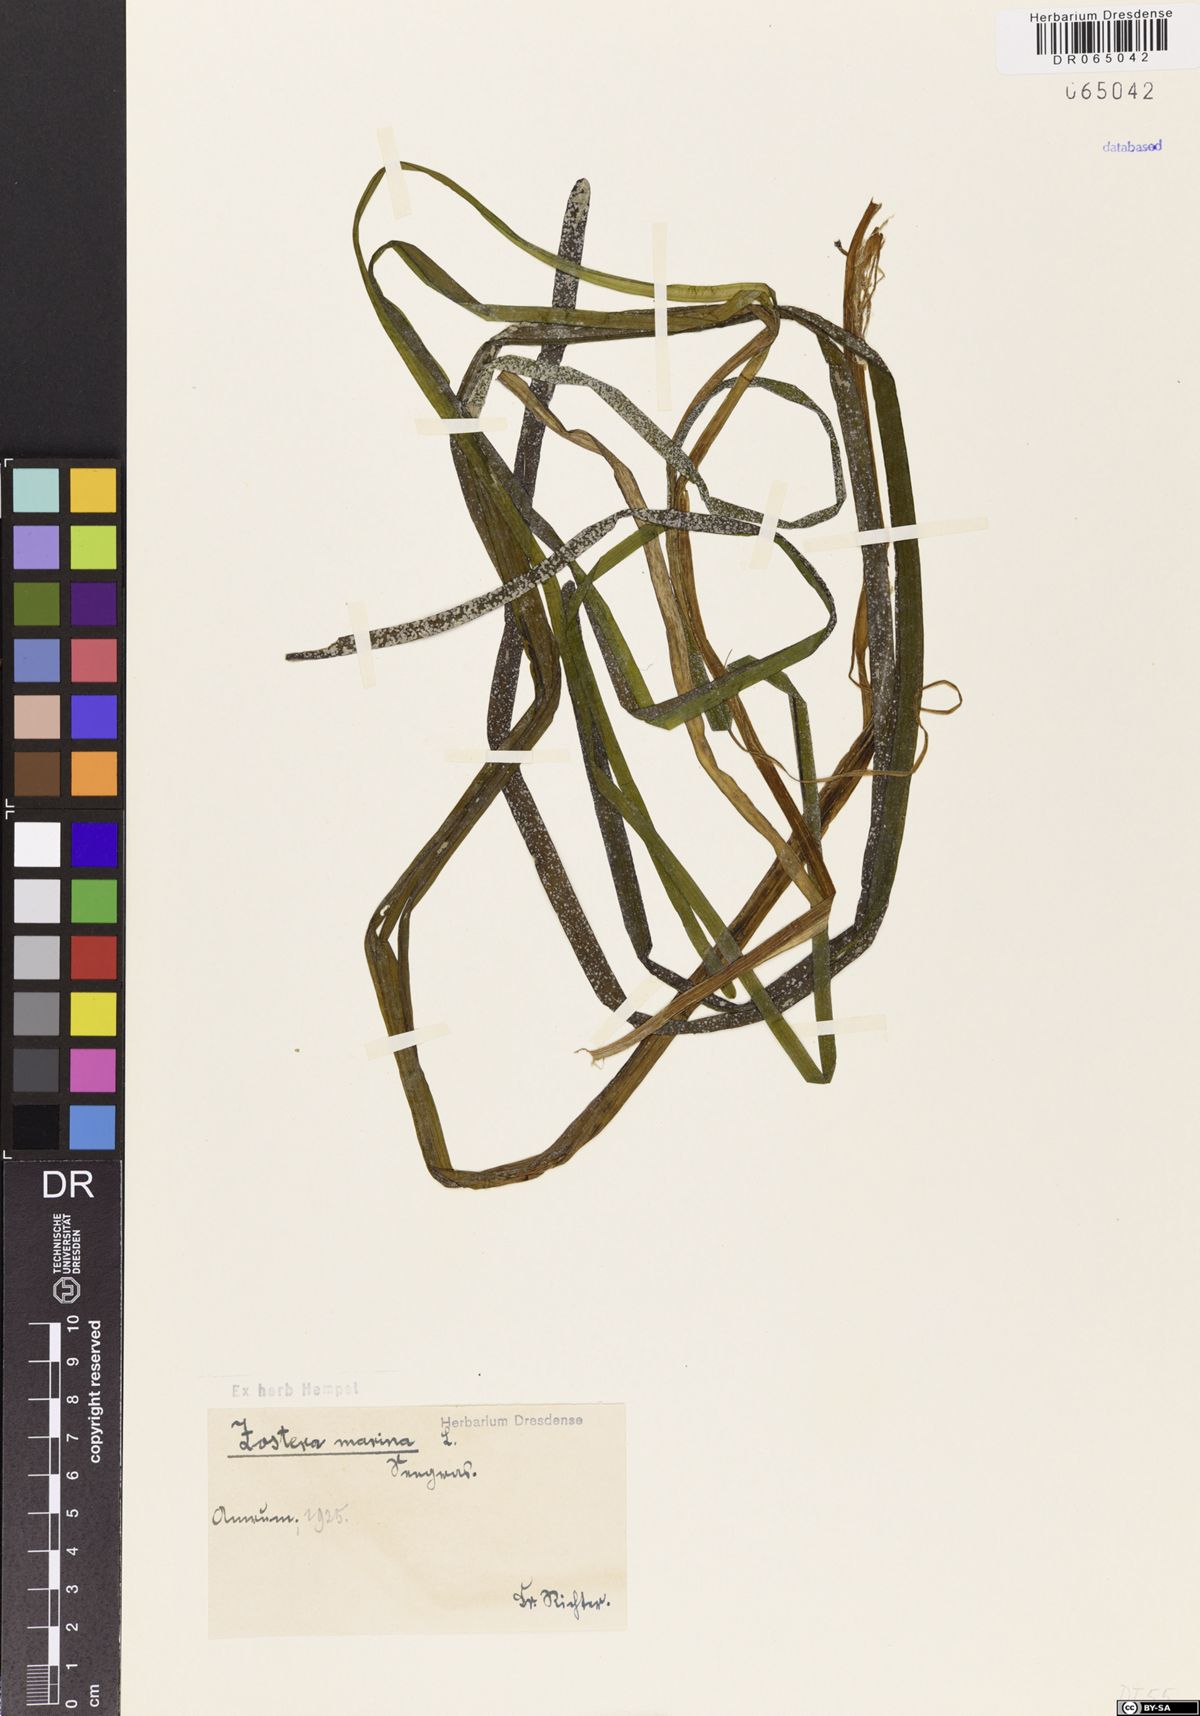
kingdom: Plantae
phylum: Tracheophyta
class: Liliopsida
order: Alismatales
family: Zosteraceae
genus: Zostera
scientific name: Zostera marina
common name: Eelgrass
